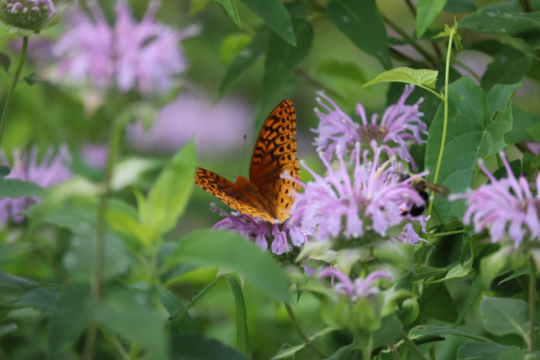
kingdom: Animalia
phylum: Arthropoda
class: Insecta
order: Lepidoptera
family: Nymphalidae
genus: Speyeria
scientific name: Speyeria cybele
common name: Great Spangled Fritillary
